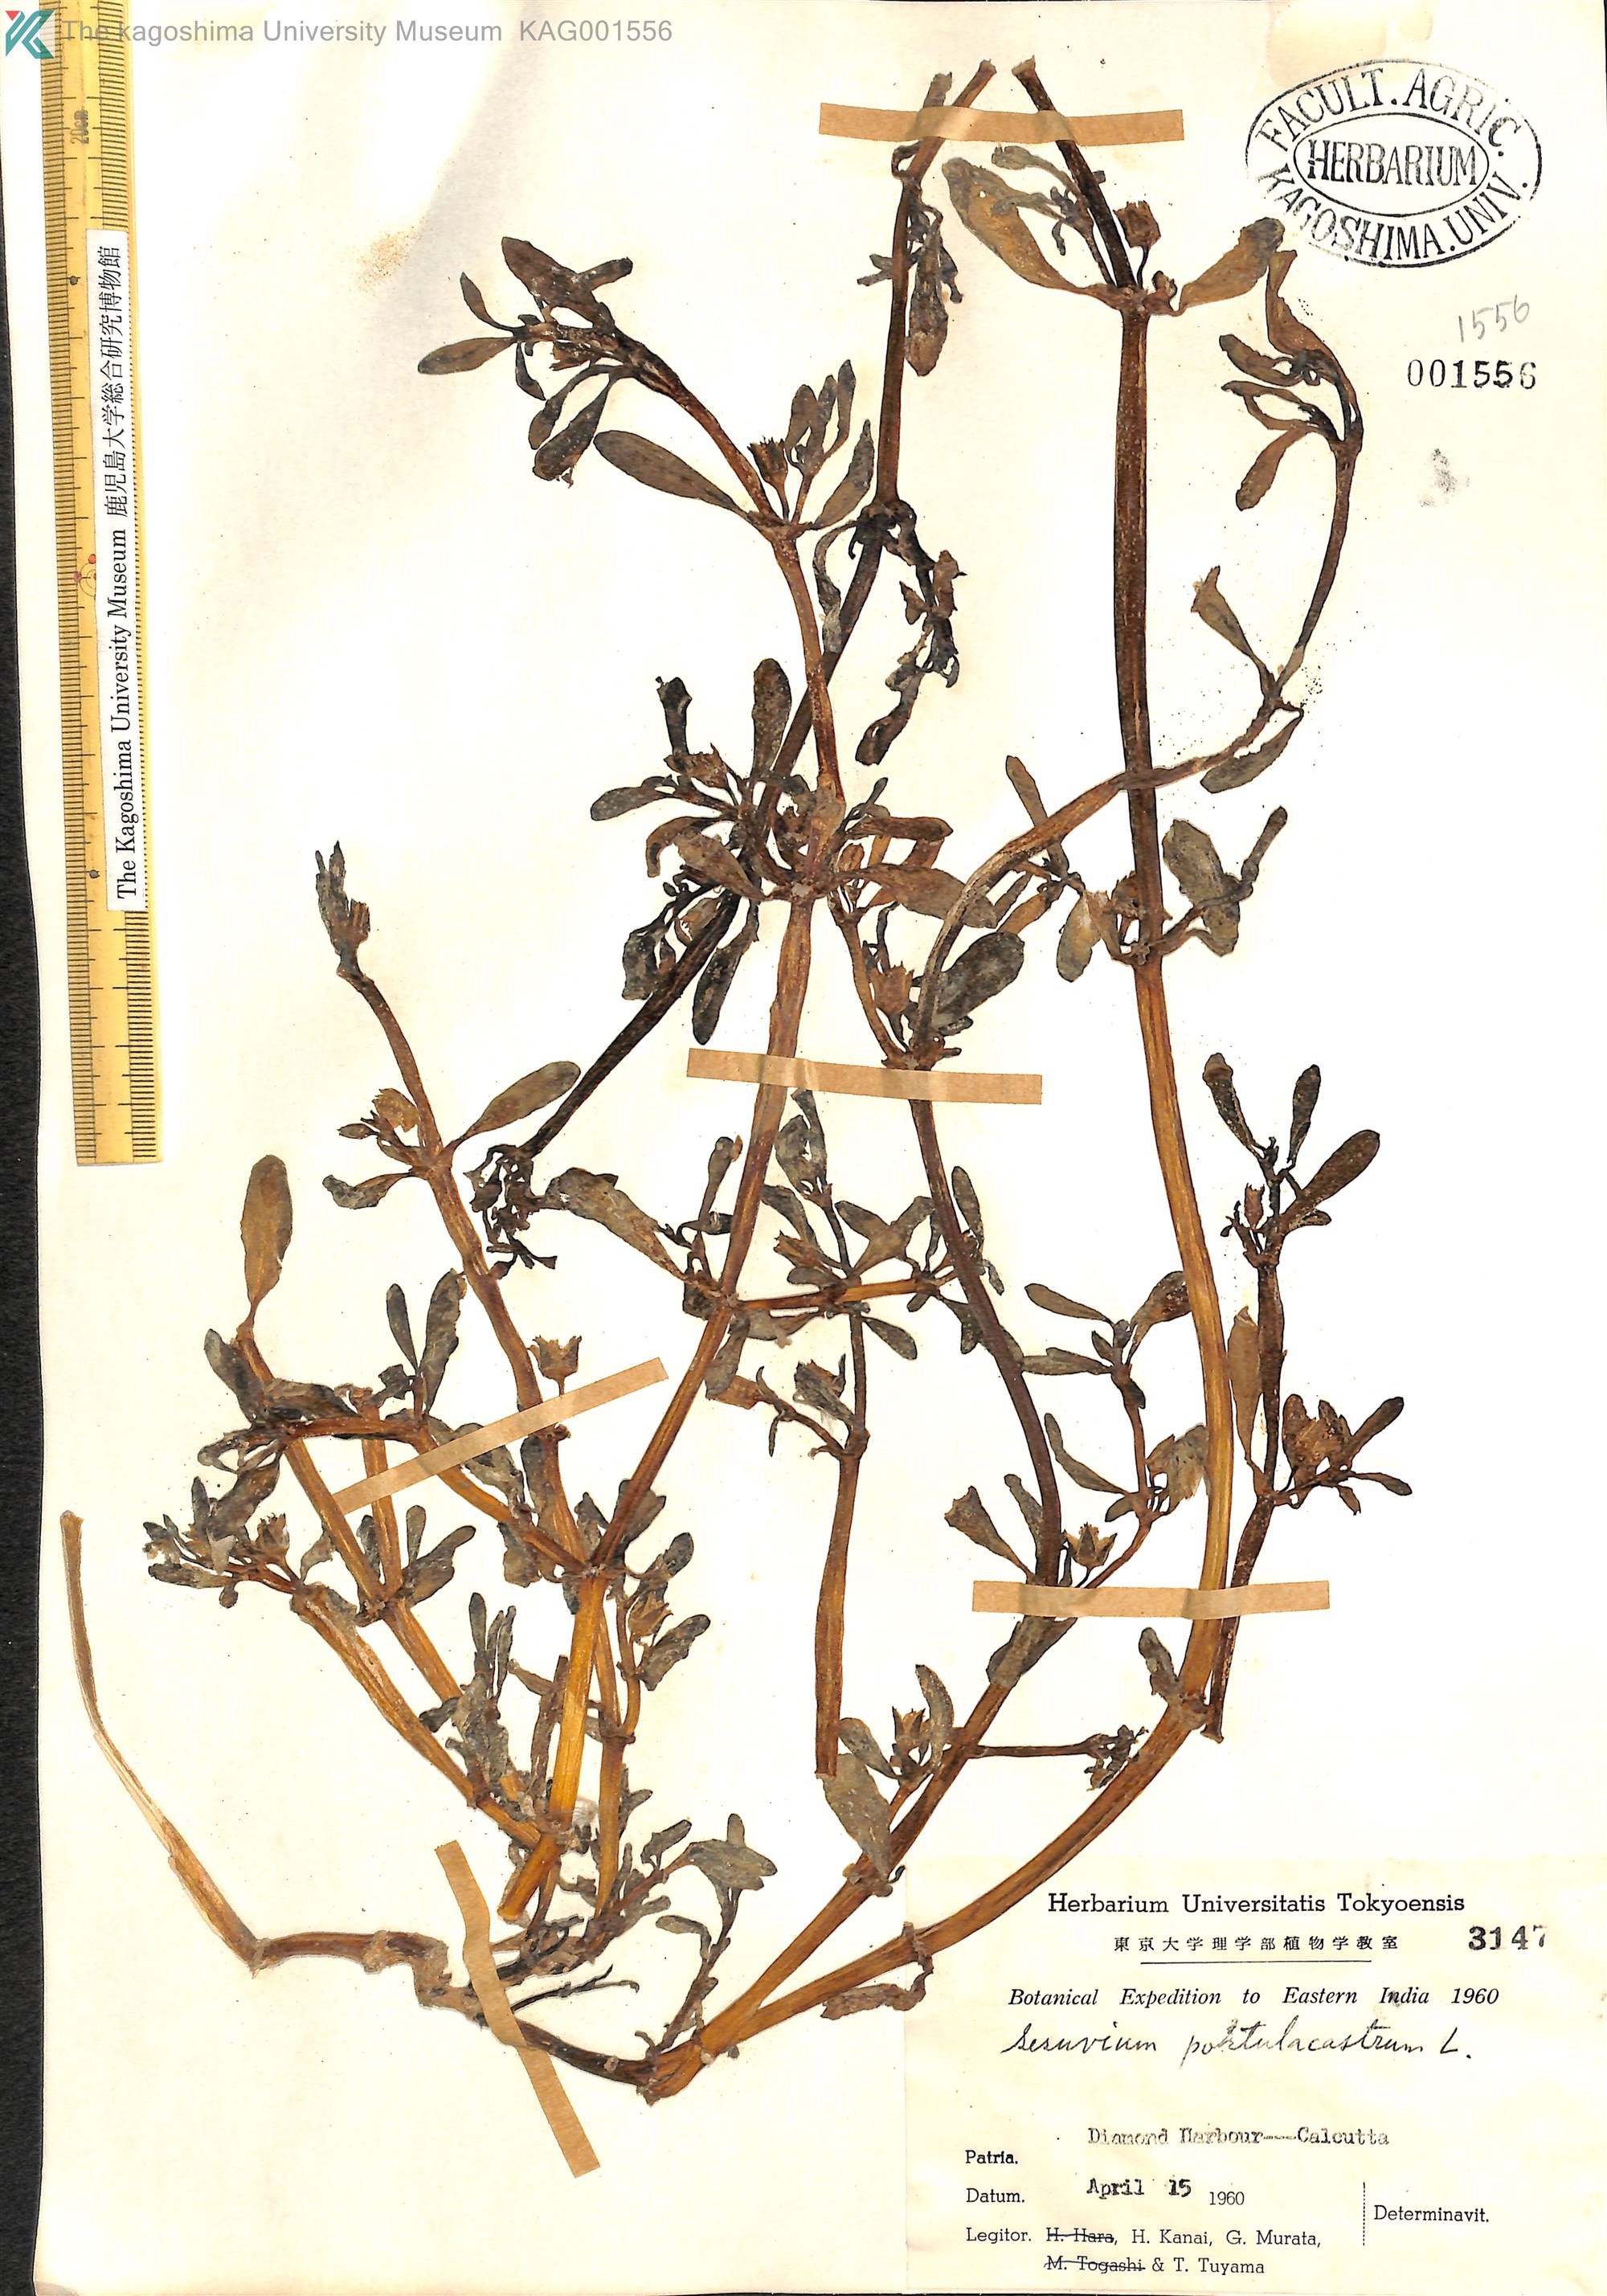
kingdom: Plantae
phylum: Tracheophyta
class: Magnoliopsida
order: Caryophyllales
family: Aizoaceae
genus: Sesuvium
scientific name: Sesuvium portulacastrum
